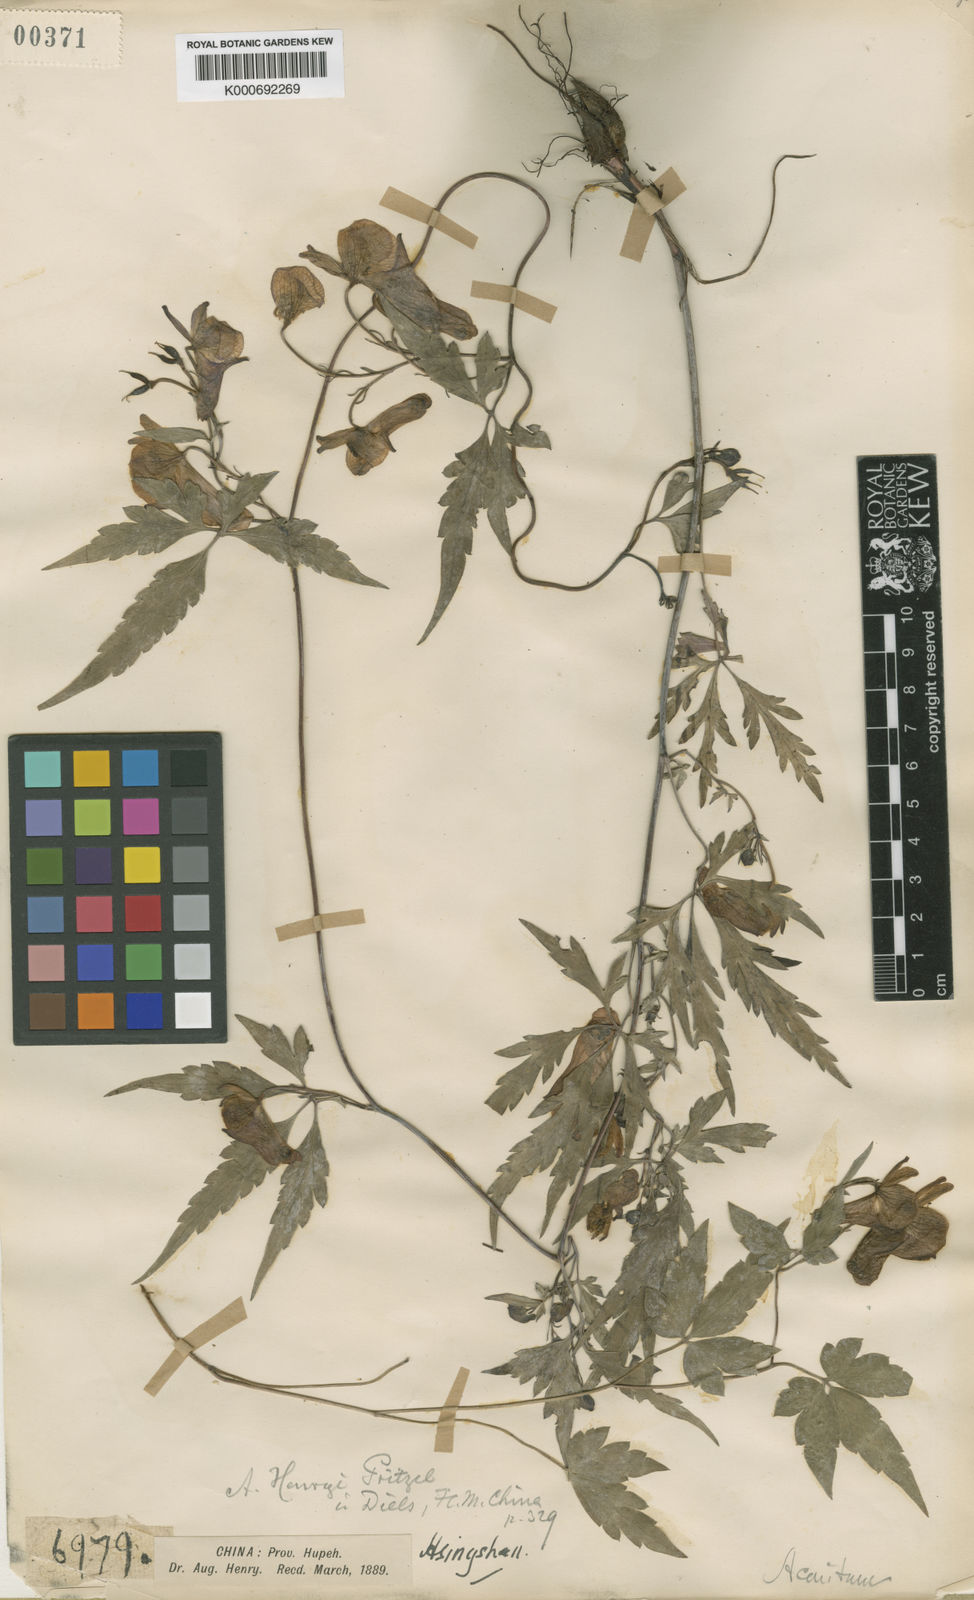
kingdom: Plantae
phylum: Tracheophyta
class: Magnoliopsida
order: Ranunculales
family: Ranunculaceae
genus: Aconitum
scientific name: Aconitum
